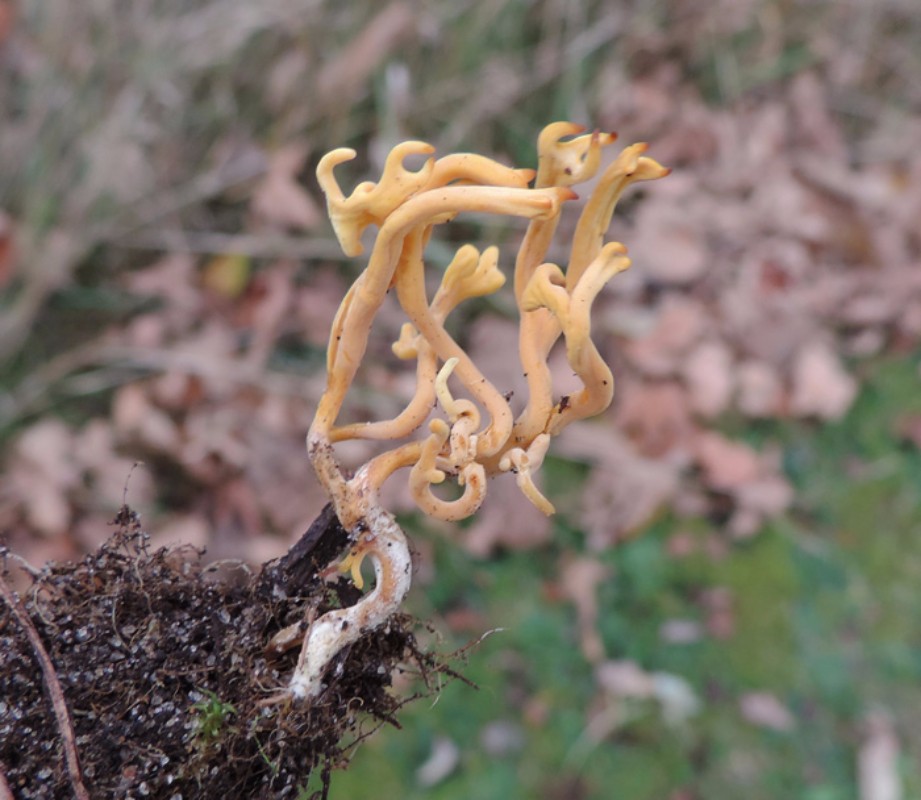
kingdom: Fungi
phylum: Basidiomycota
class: Agaricomycetes
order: Agaricales
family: Clavariaceae
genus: Clavulinopsis
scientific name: Clavulinopsis corniculata
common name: eng-køllesvamp
